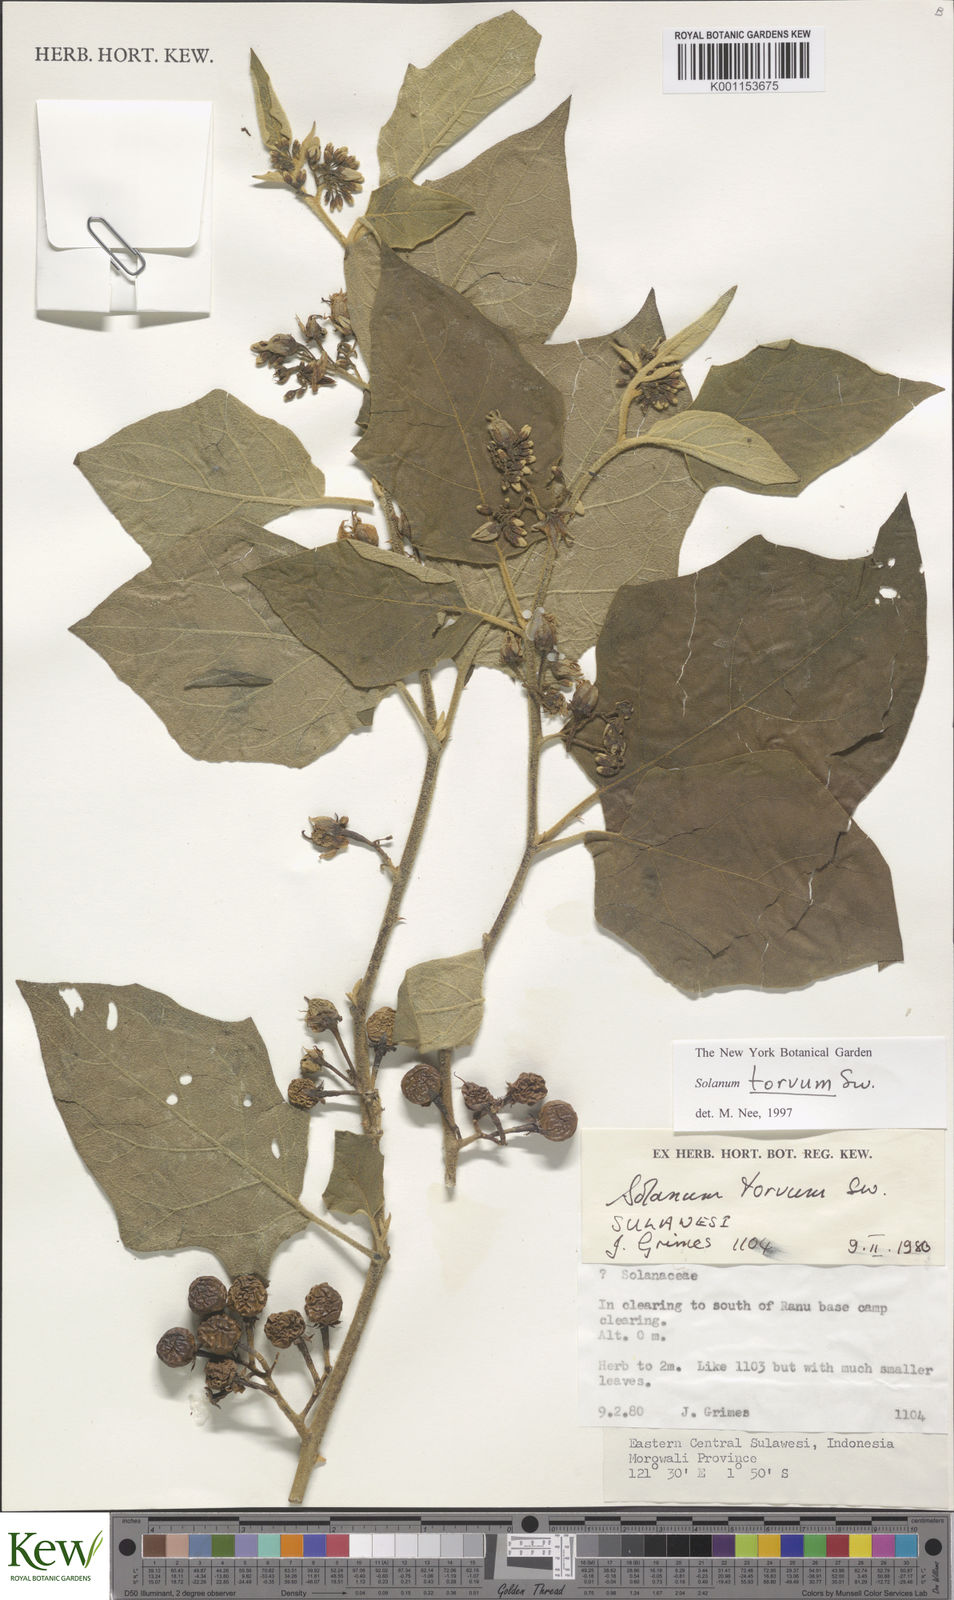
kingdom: Plantae
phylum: Tracheophyta
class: Magnoliopsida
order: Solanales
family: Solanaceae
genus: Solanum
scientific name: Solanum torvum
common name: Turkey berry
